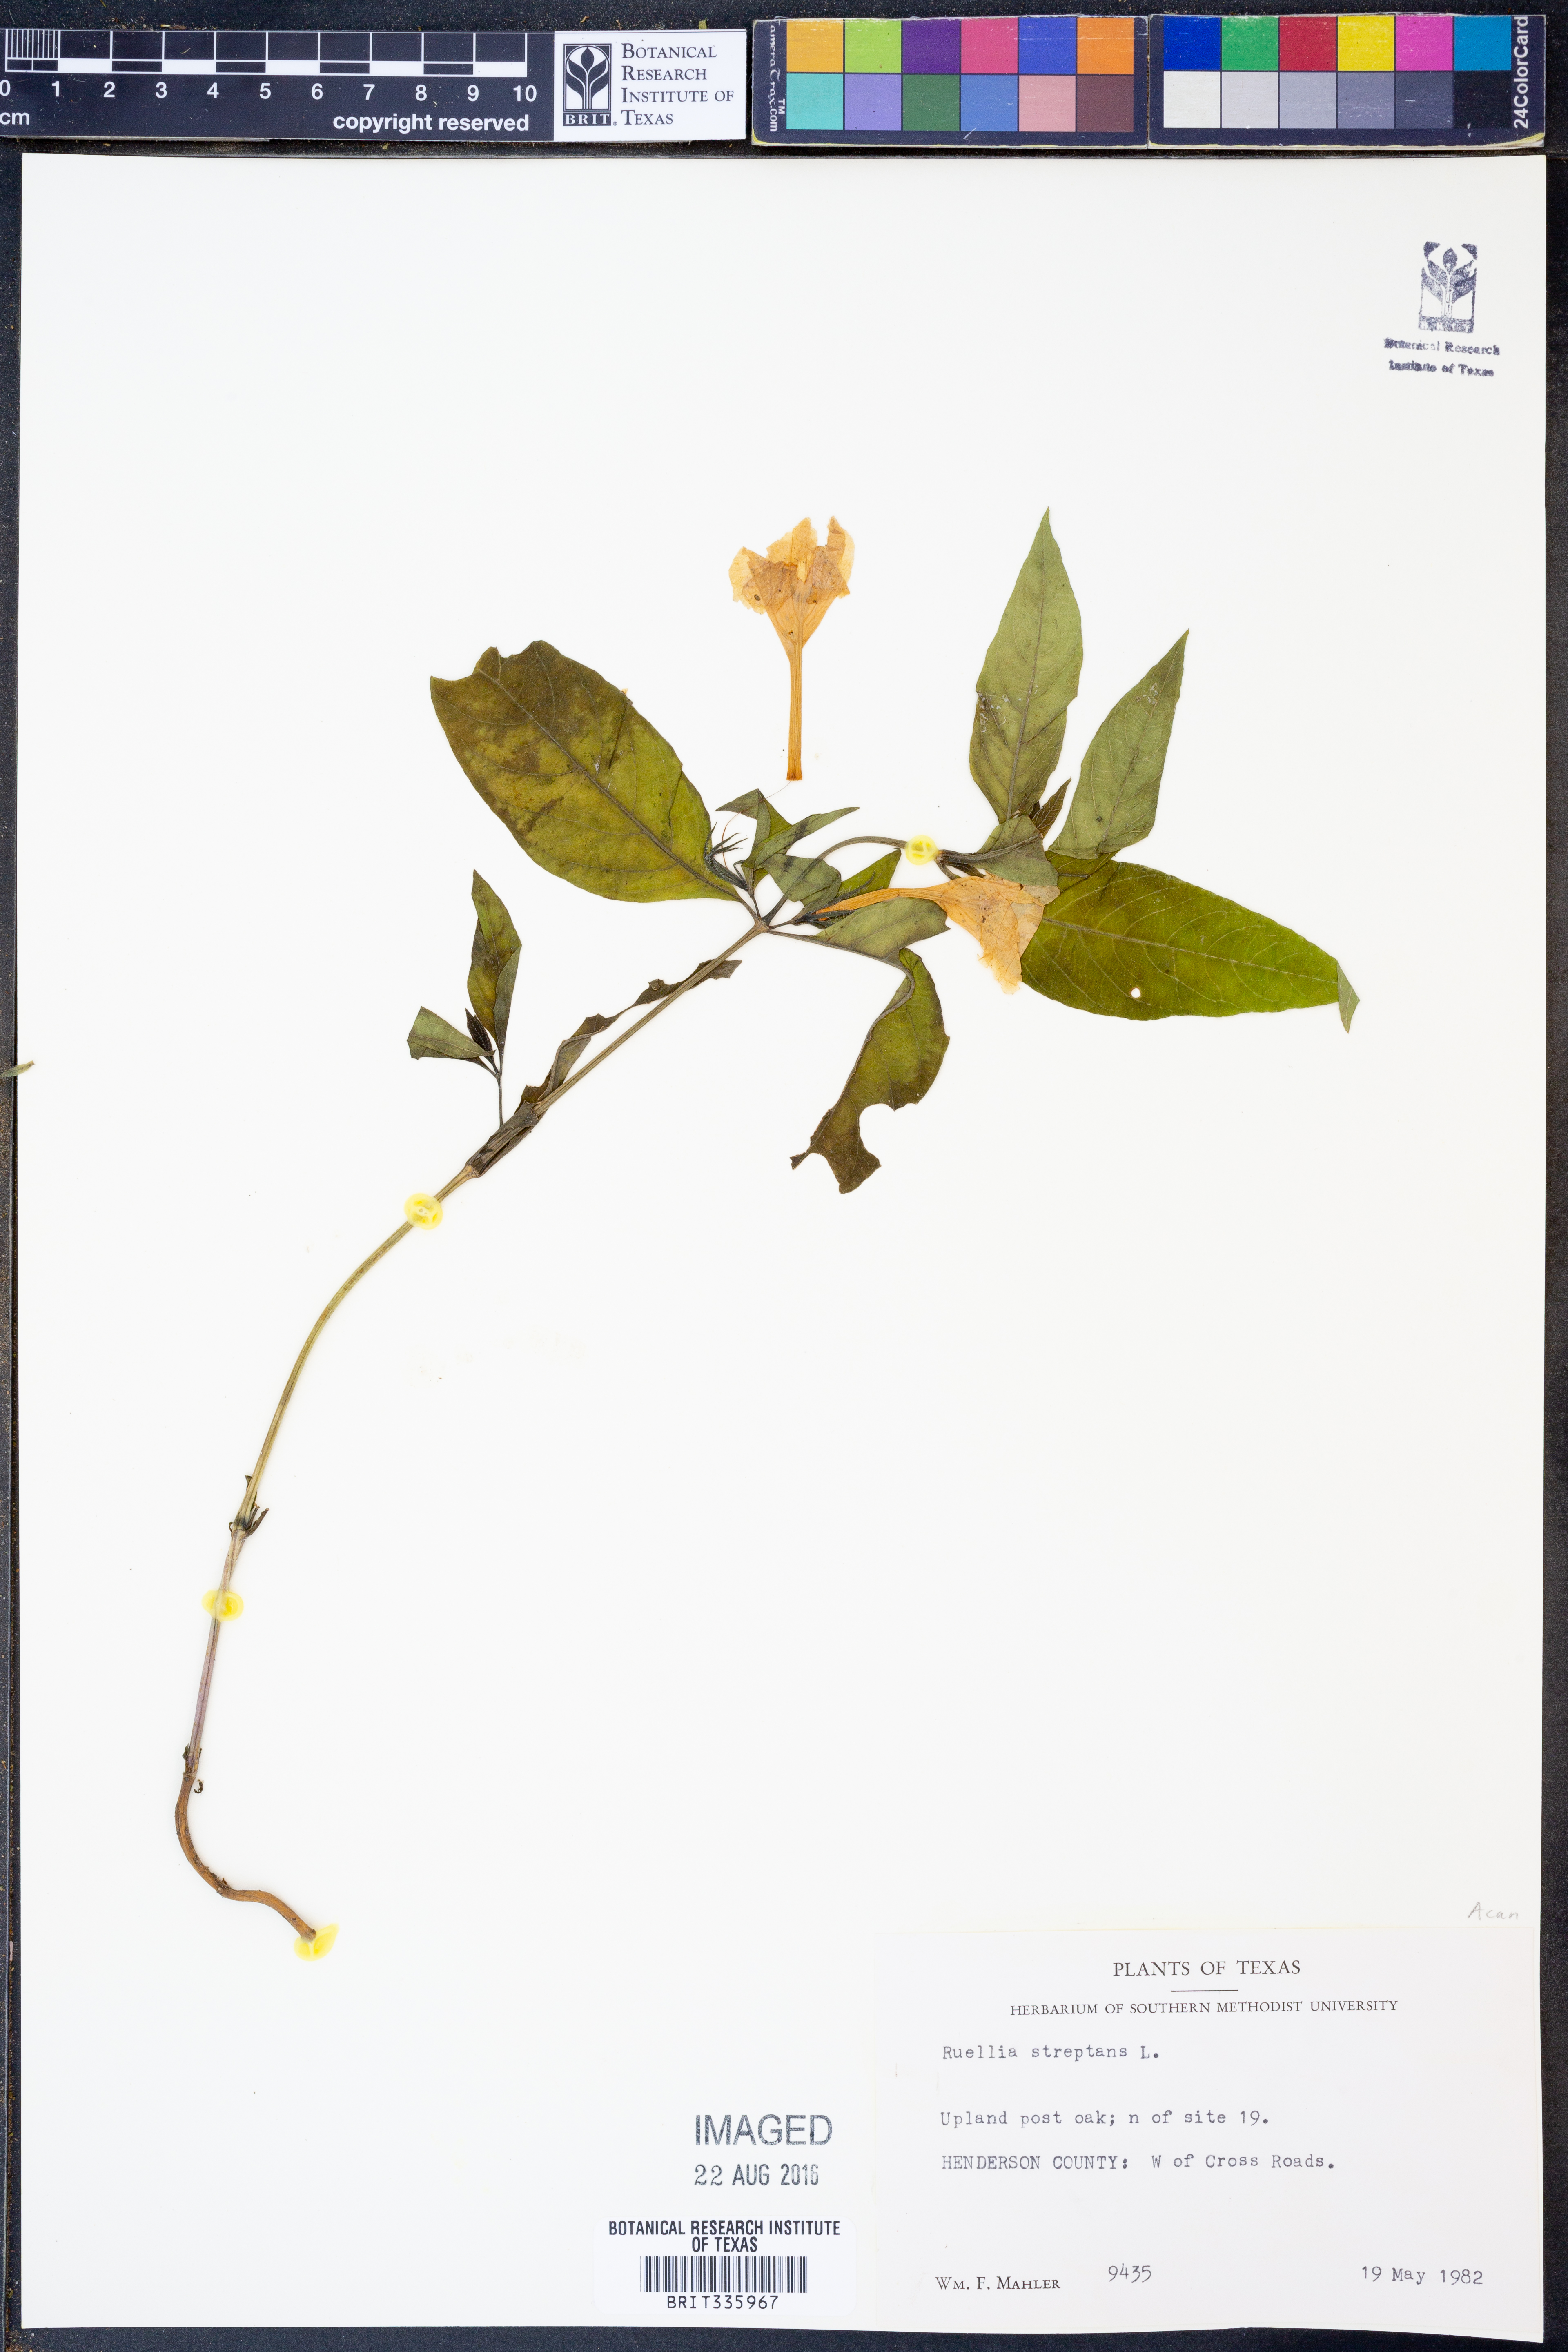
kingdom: Plantae
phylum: Tracheophyta
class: Magnoliopsida
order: Lamiales
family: Acanthaceae
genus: Ruellia
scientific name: Ruellia strepens
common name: Limestone wild petunia
